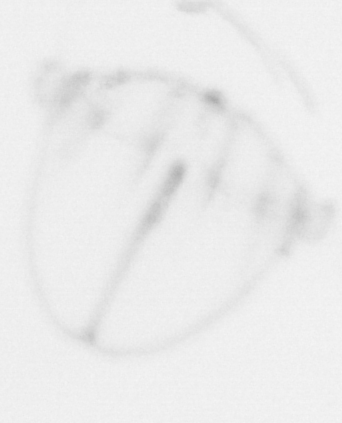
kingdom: Animalia
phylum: Cnidaria
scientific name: Cnidaria
